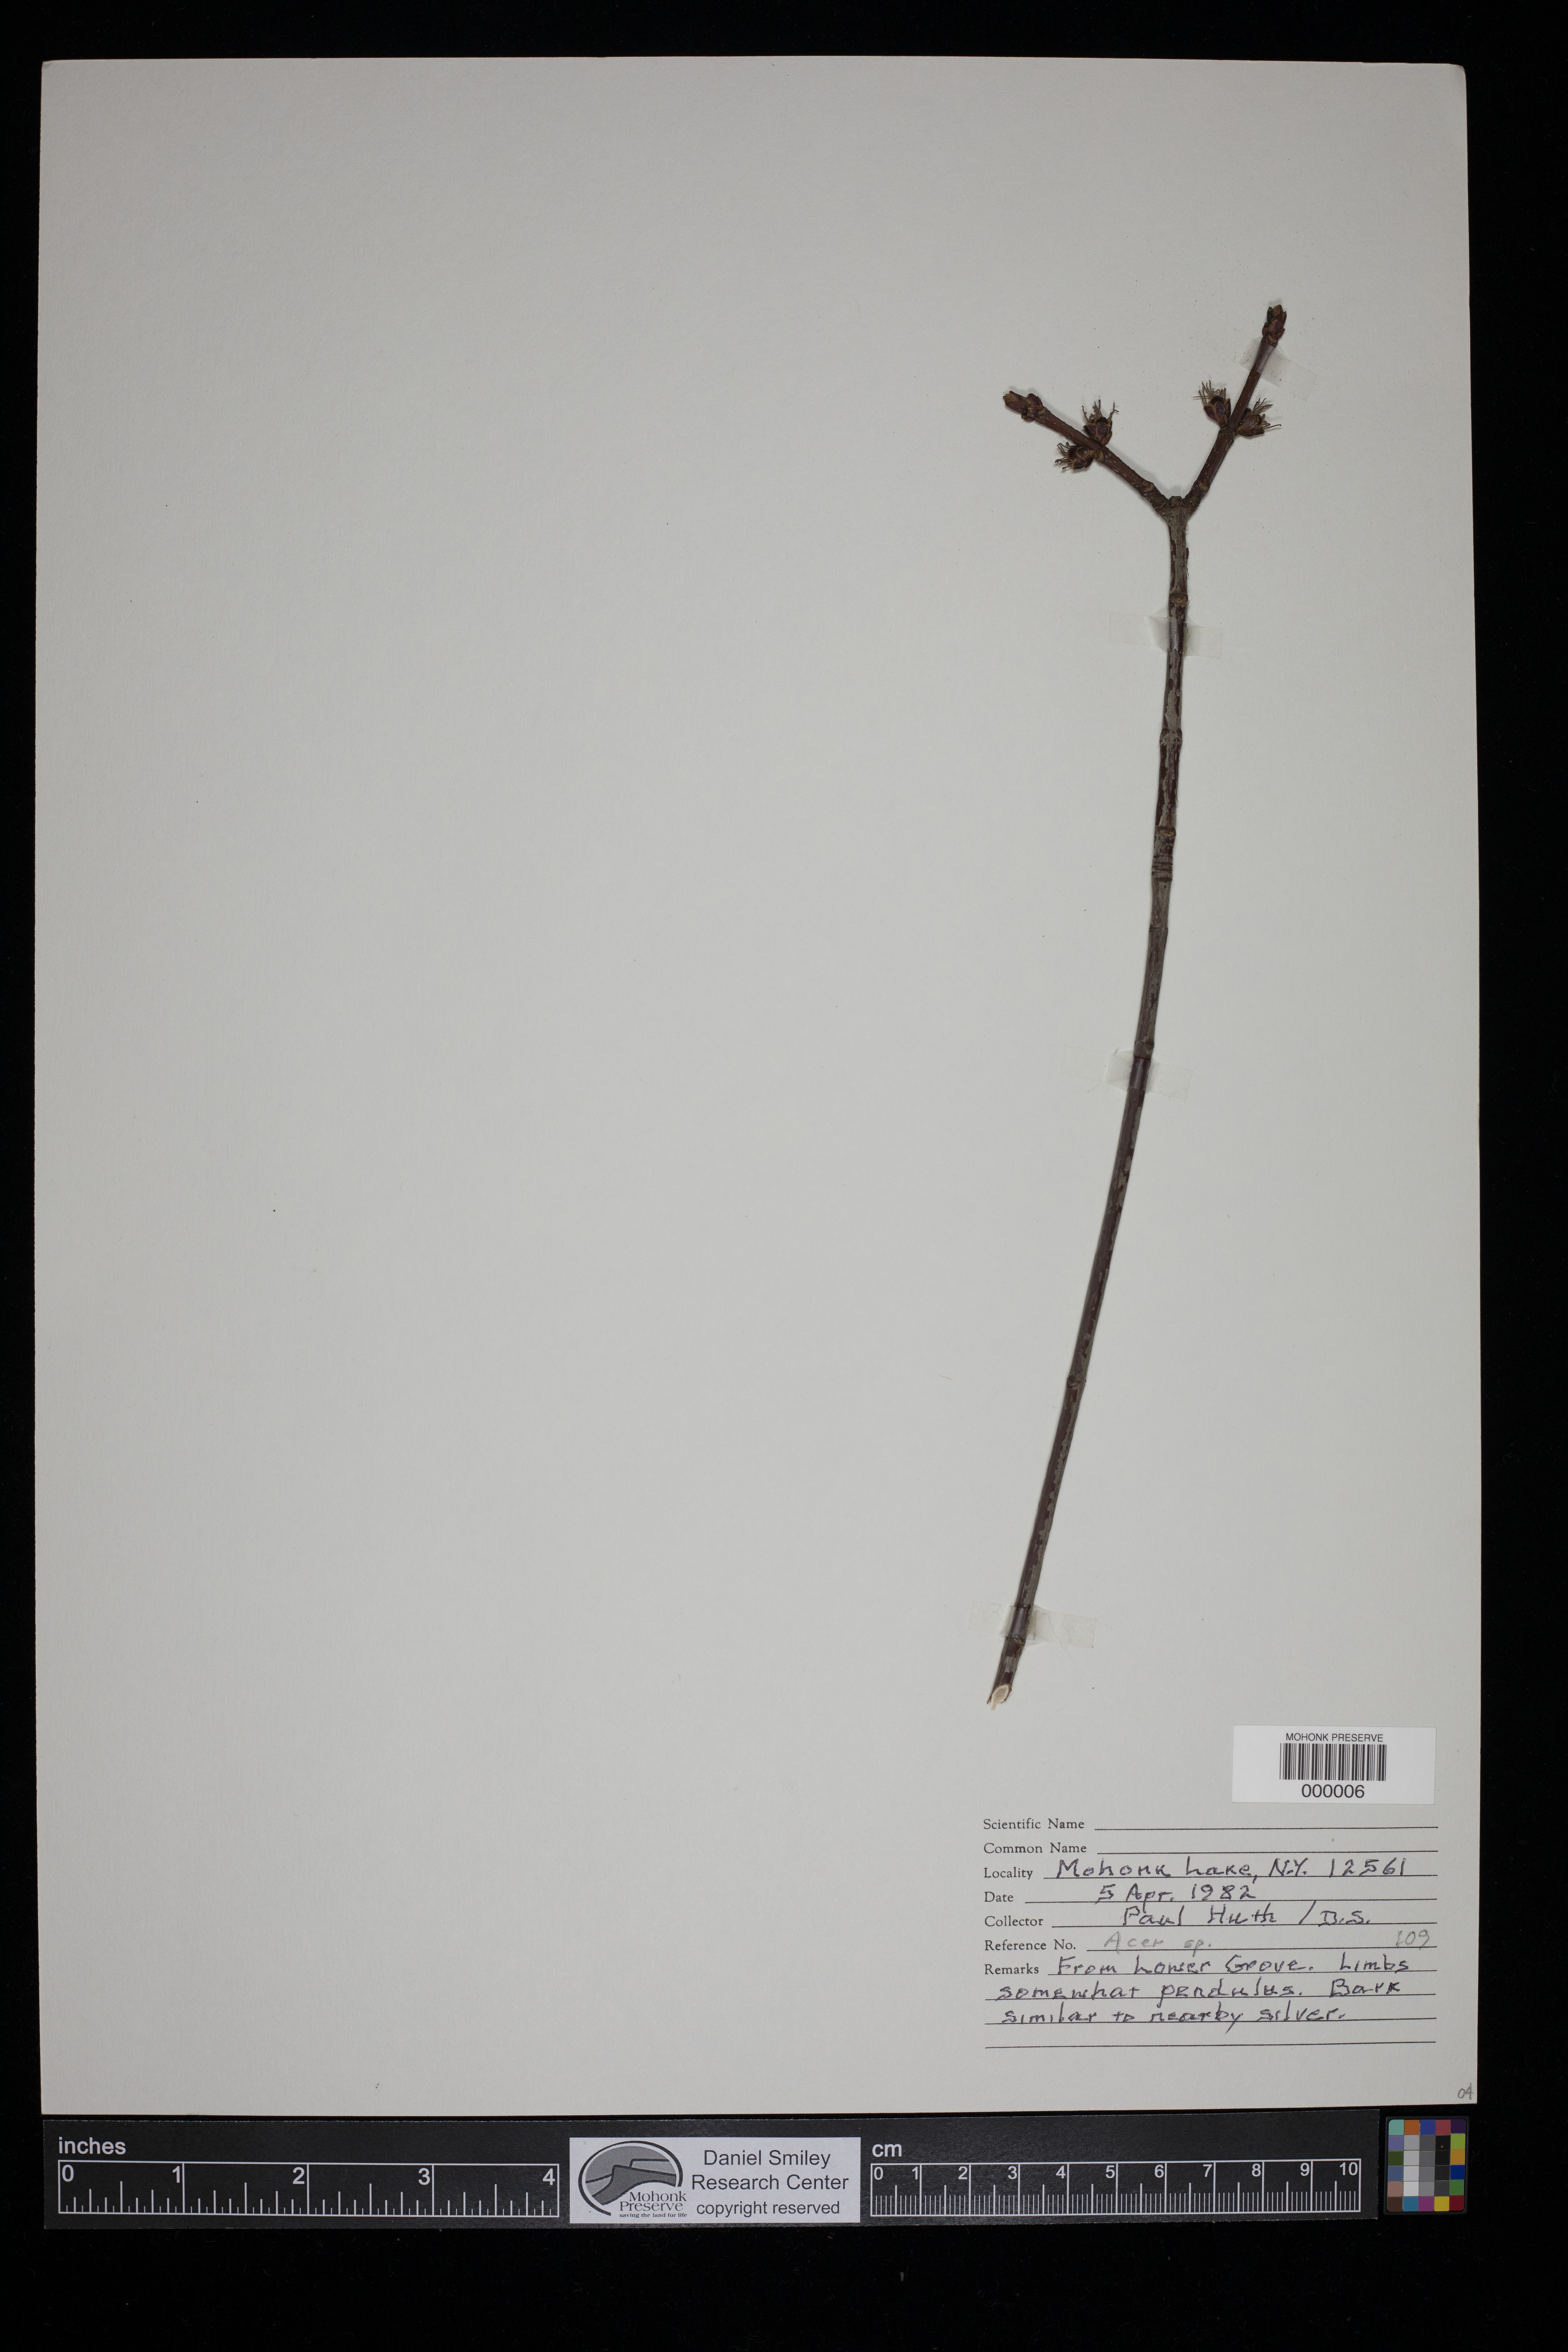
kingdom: Plantae
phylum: Tracheophyta
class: Magnoliopsida
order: Sapindales
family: Sapindaceae
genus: Acer
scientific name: Acer
